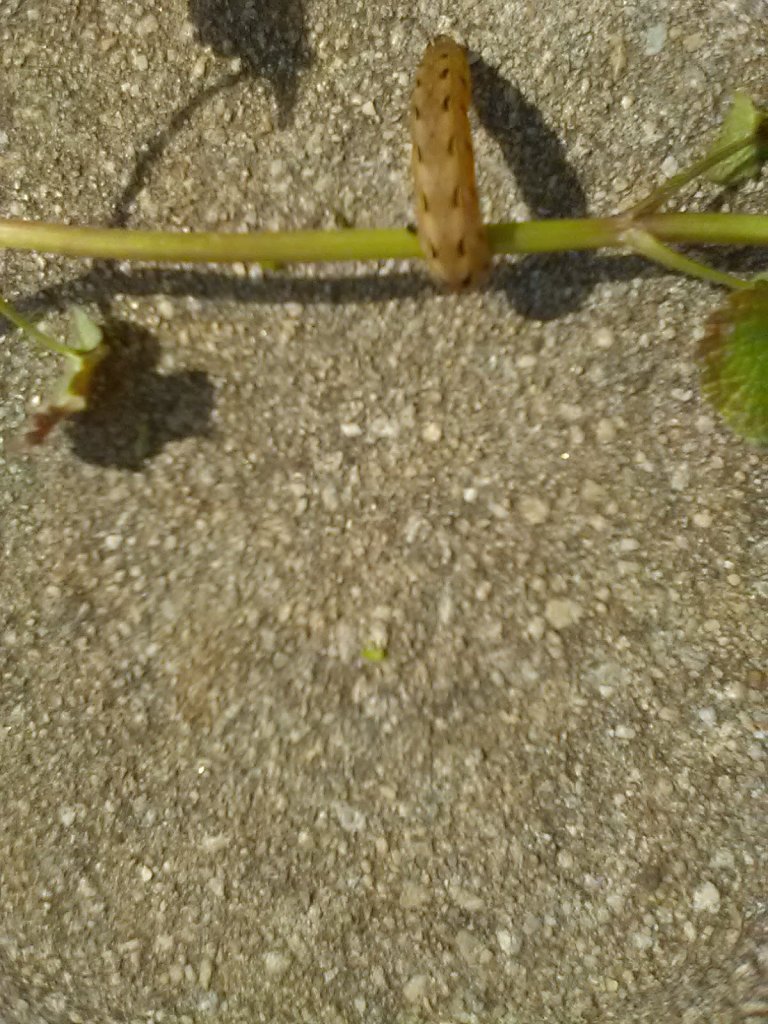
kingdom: Animalia
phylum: Arthropoda
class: Insecta
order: Lepidoptera
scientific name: Lepidoptera
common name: Butterflies
